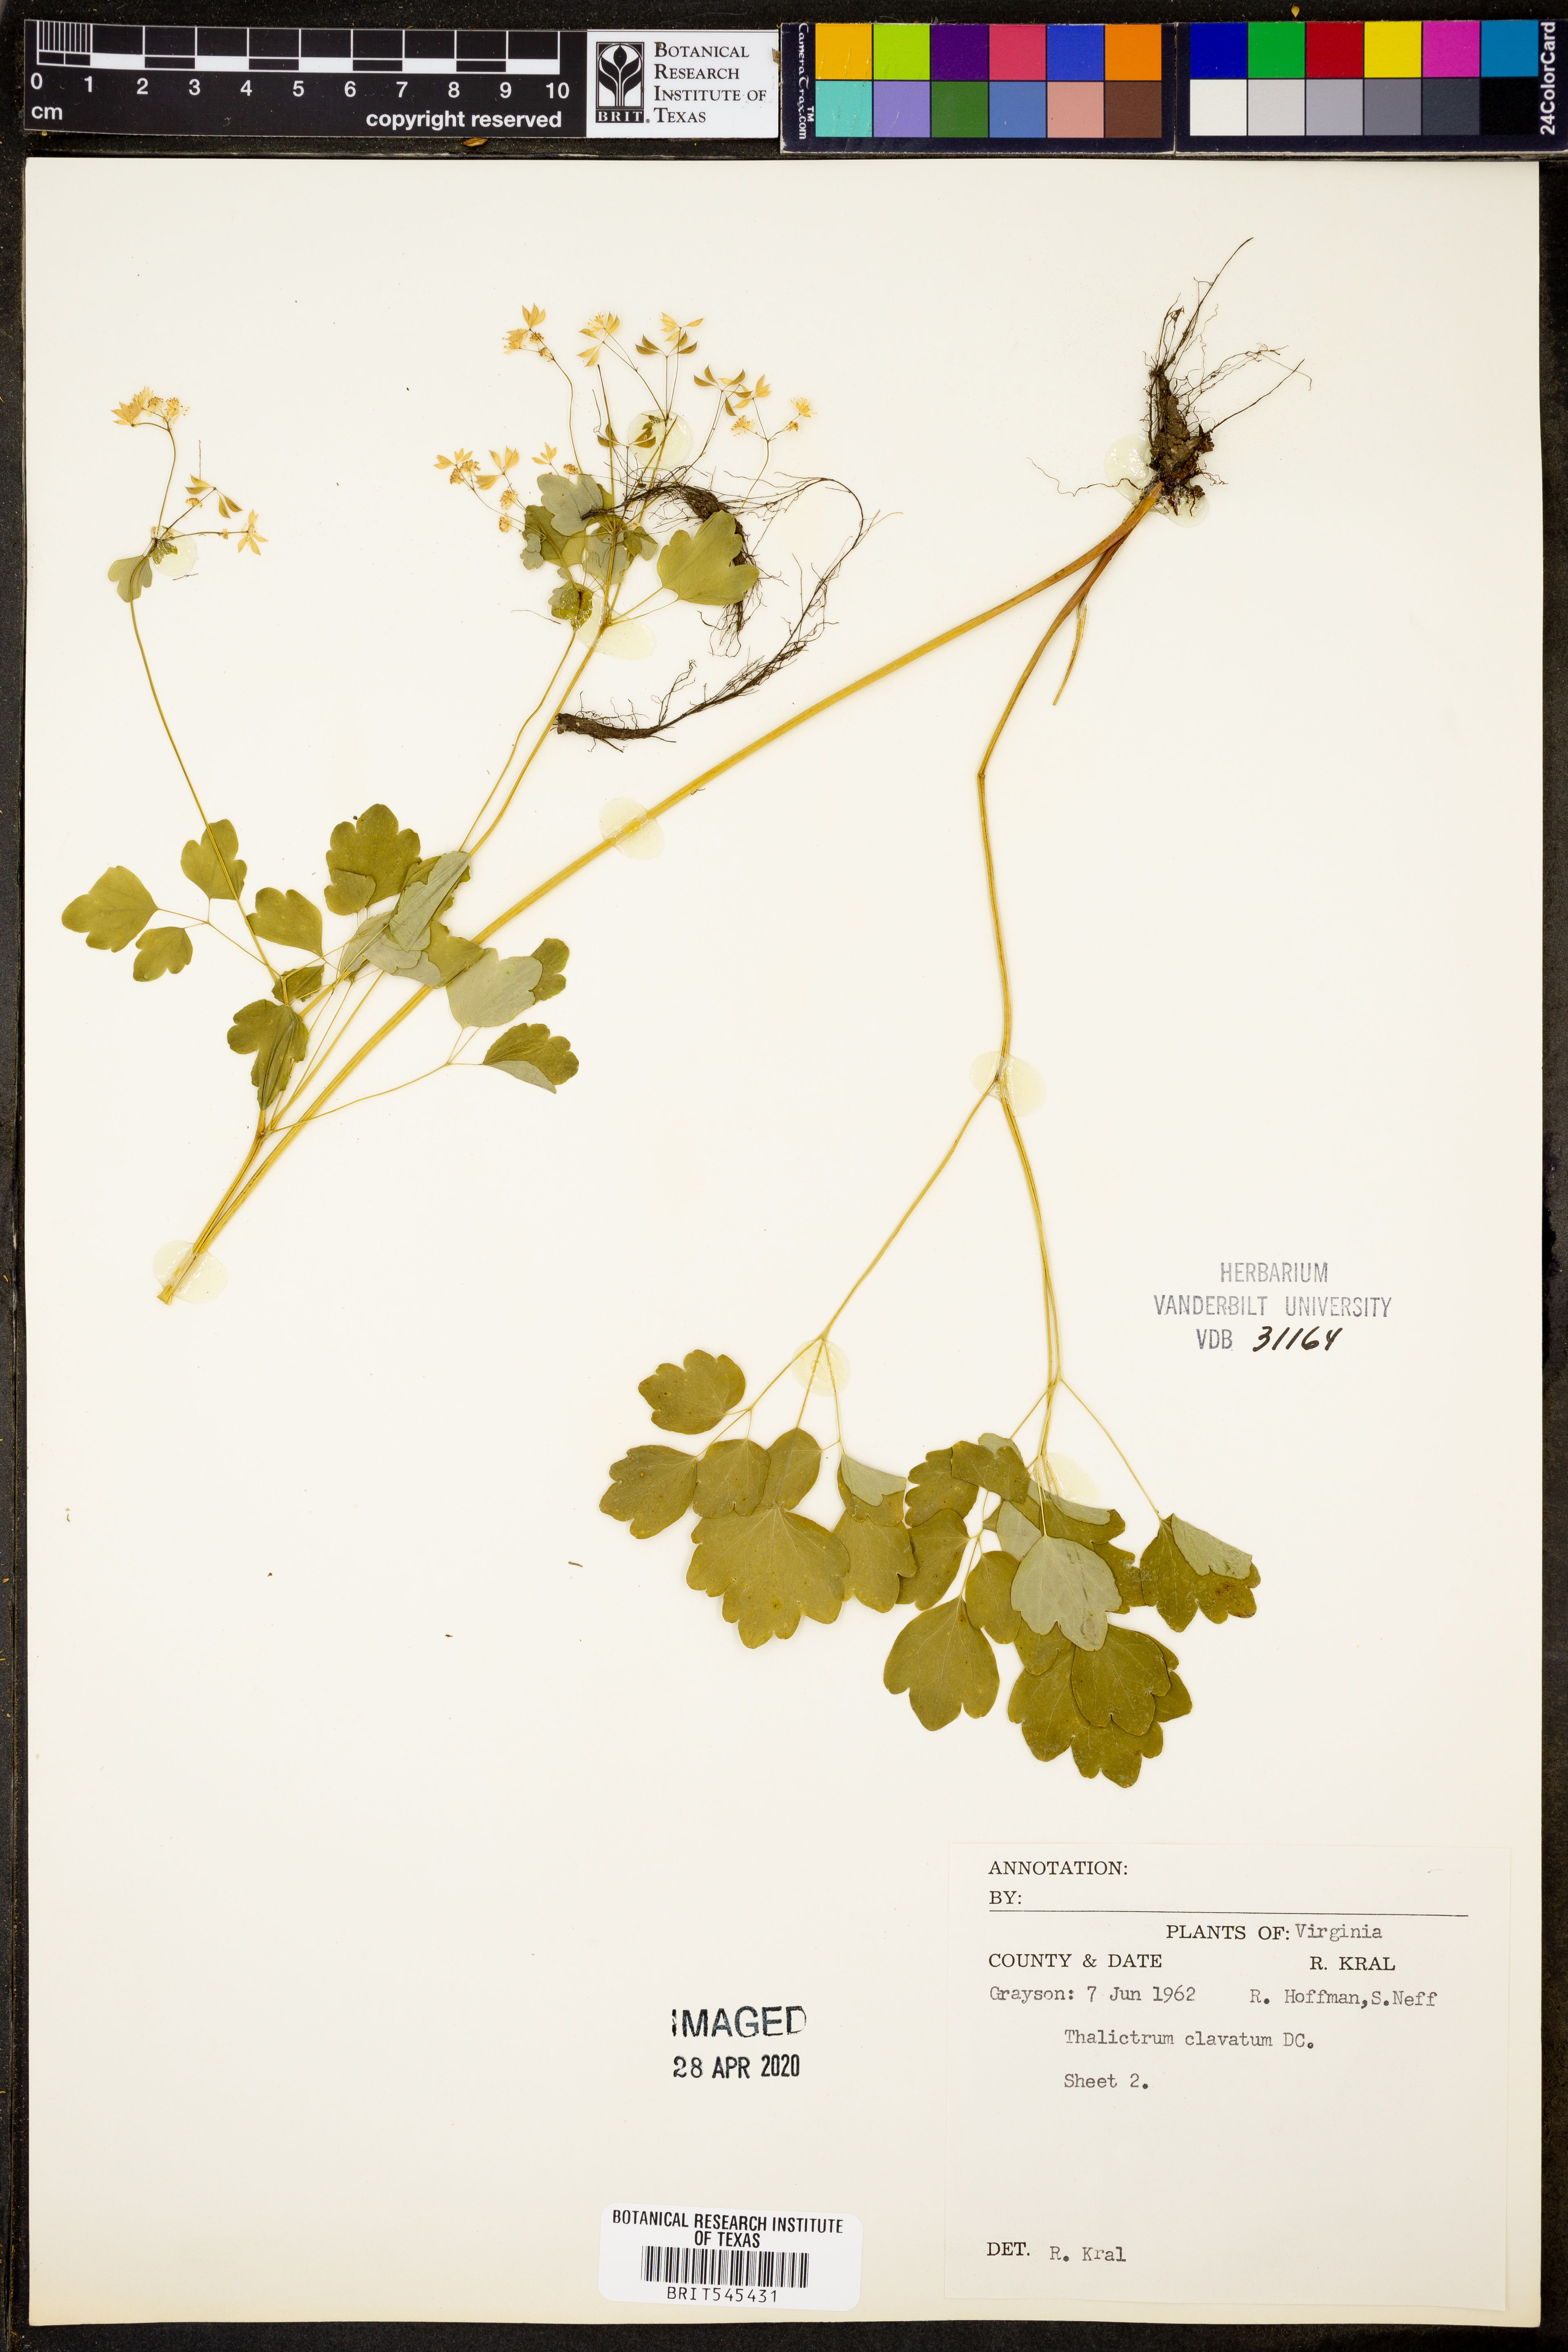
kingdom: Plantae
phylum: Tracheophyta
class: Magnoliopsida
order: Ranunculales
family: Ranunculaceae
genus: Thalictrum
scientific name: Thalictrum clavatum
